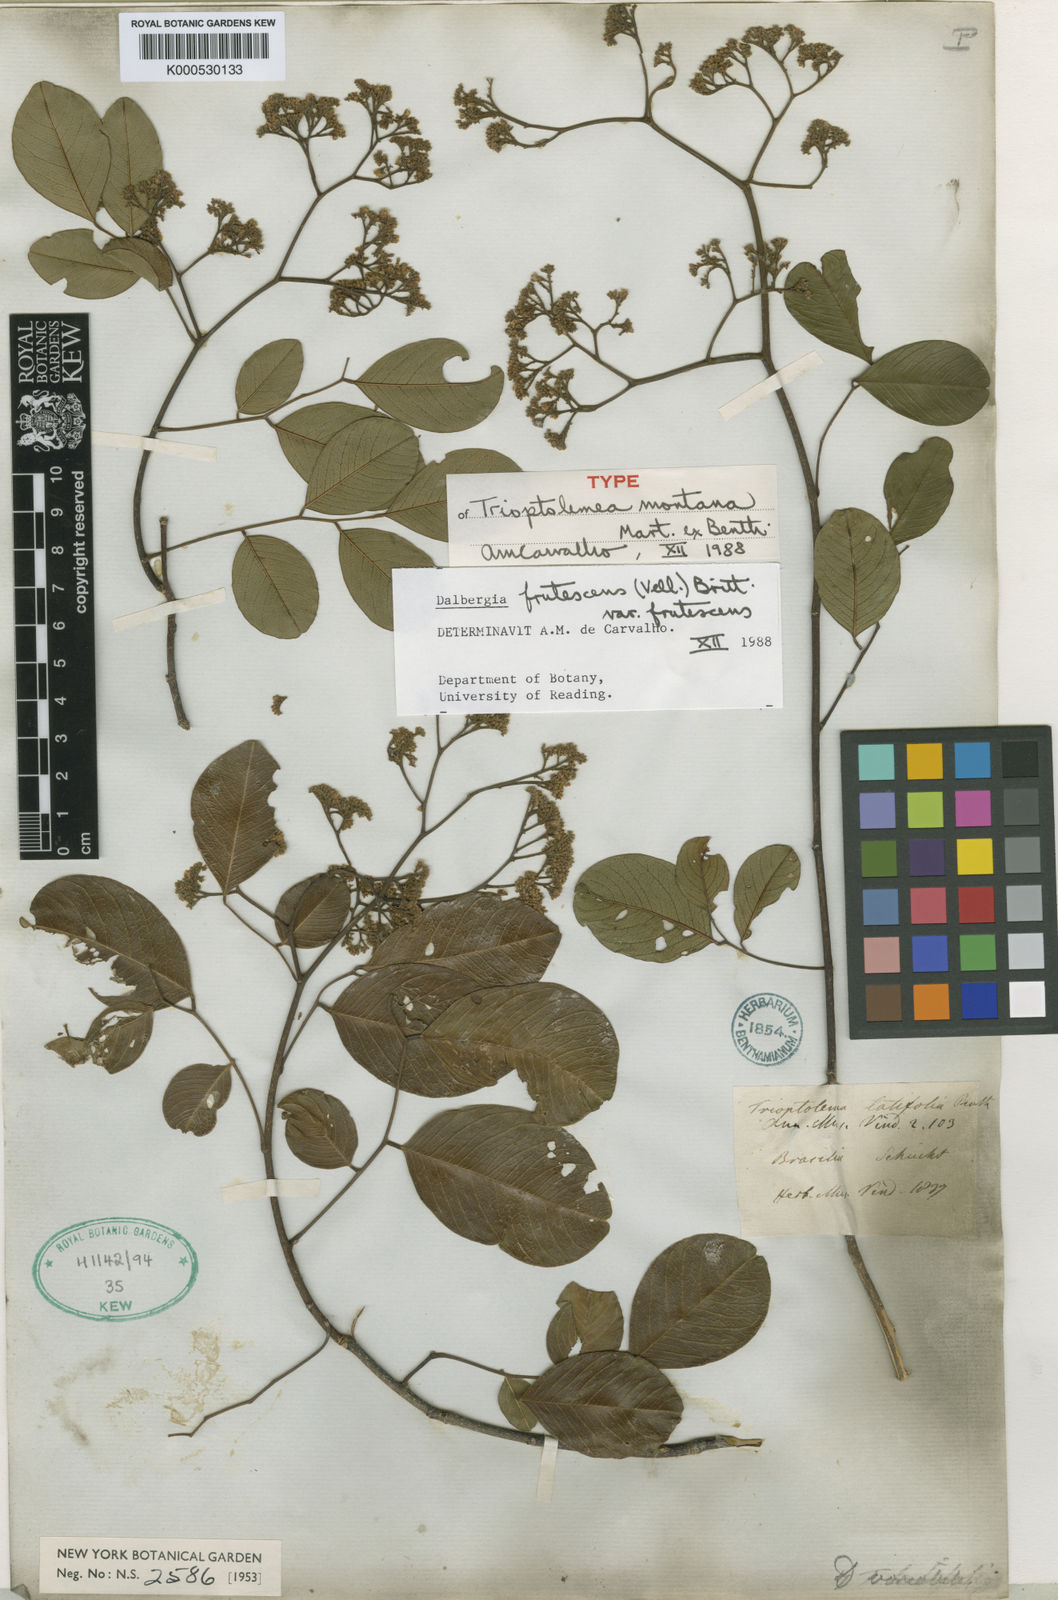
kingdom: Plantae
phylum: Tracheophyta
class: Magnoliopsida
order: Fabales
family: Fabaceae
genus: Dalbergia
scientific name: Dalbergia frutescens
